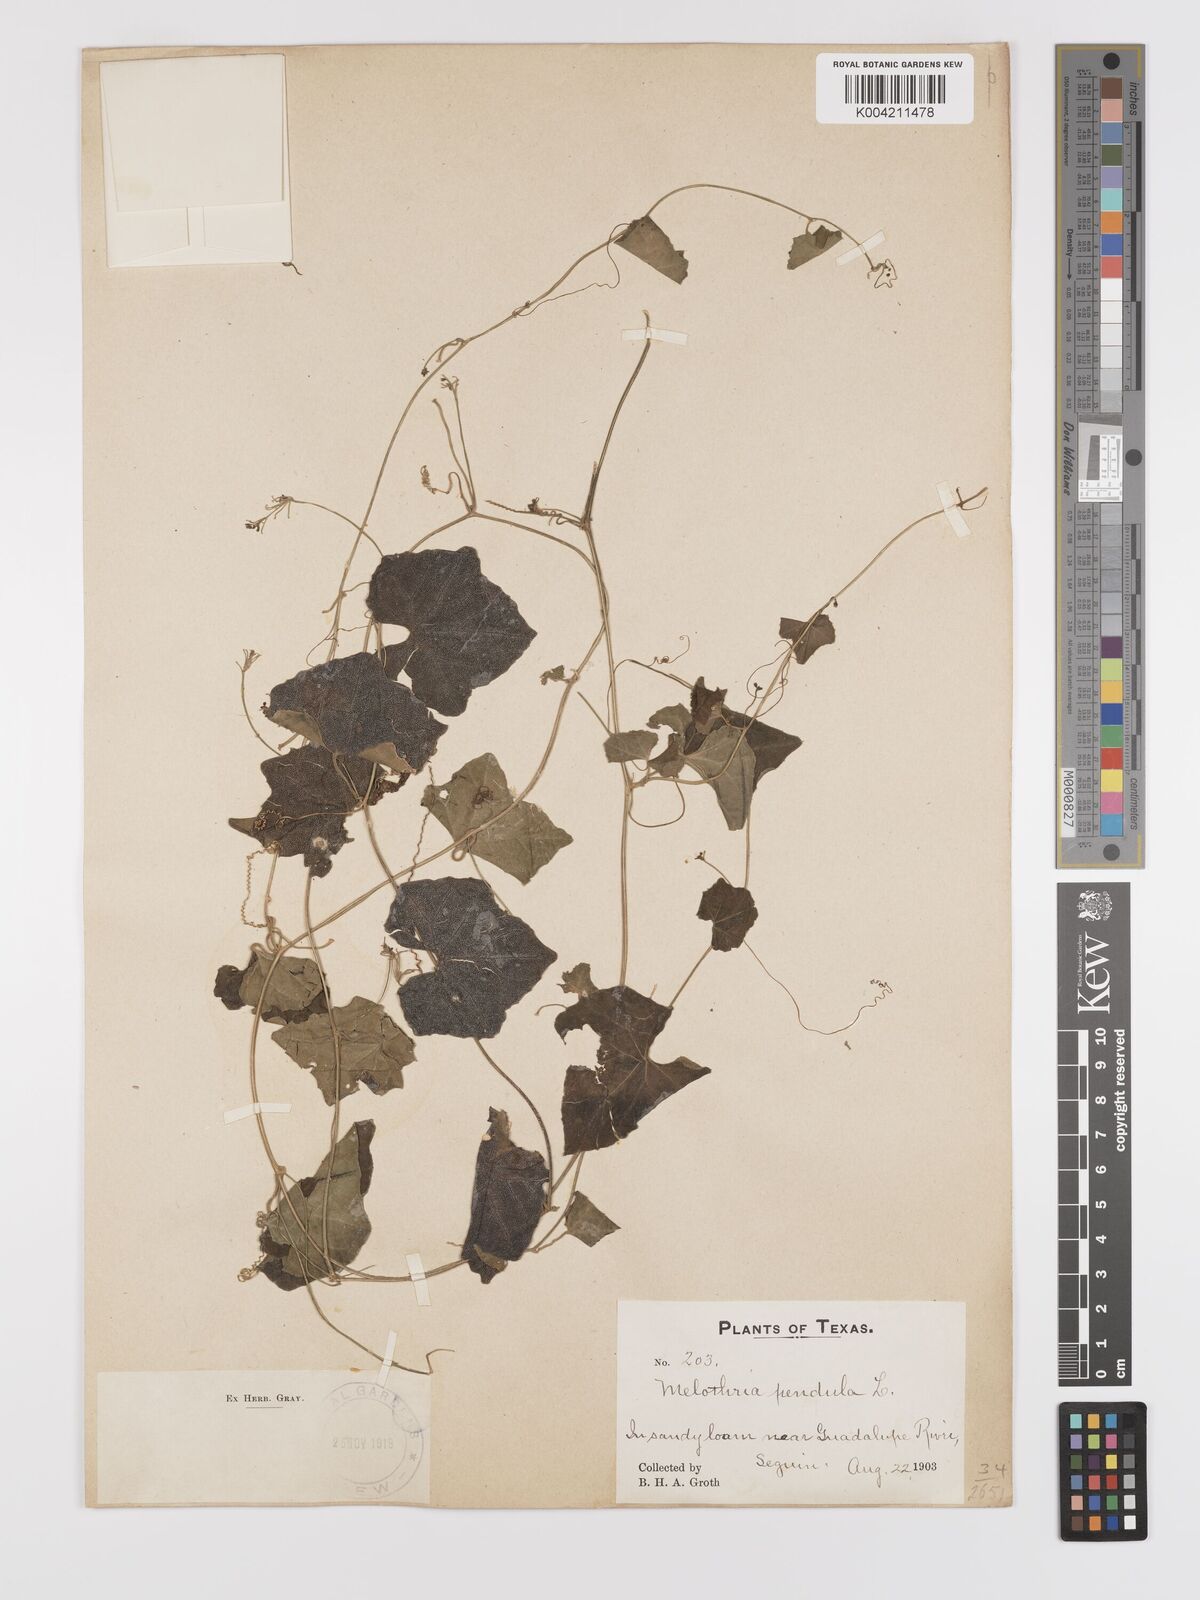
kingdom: Plantae
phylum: Tracheophyta
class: Magnoliopsida
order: Cucurbitales
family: Cucurbitaceae
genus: Melothria
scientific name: Melothria pendula
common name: Creeping-cucumber
